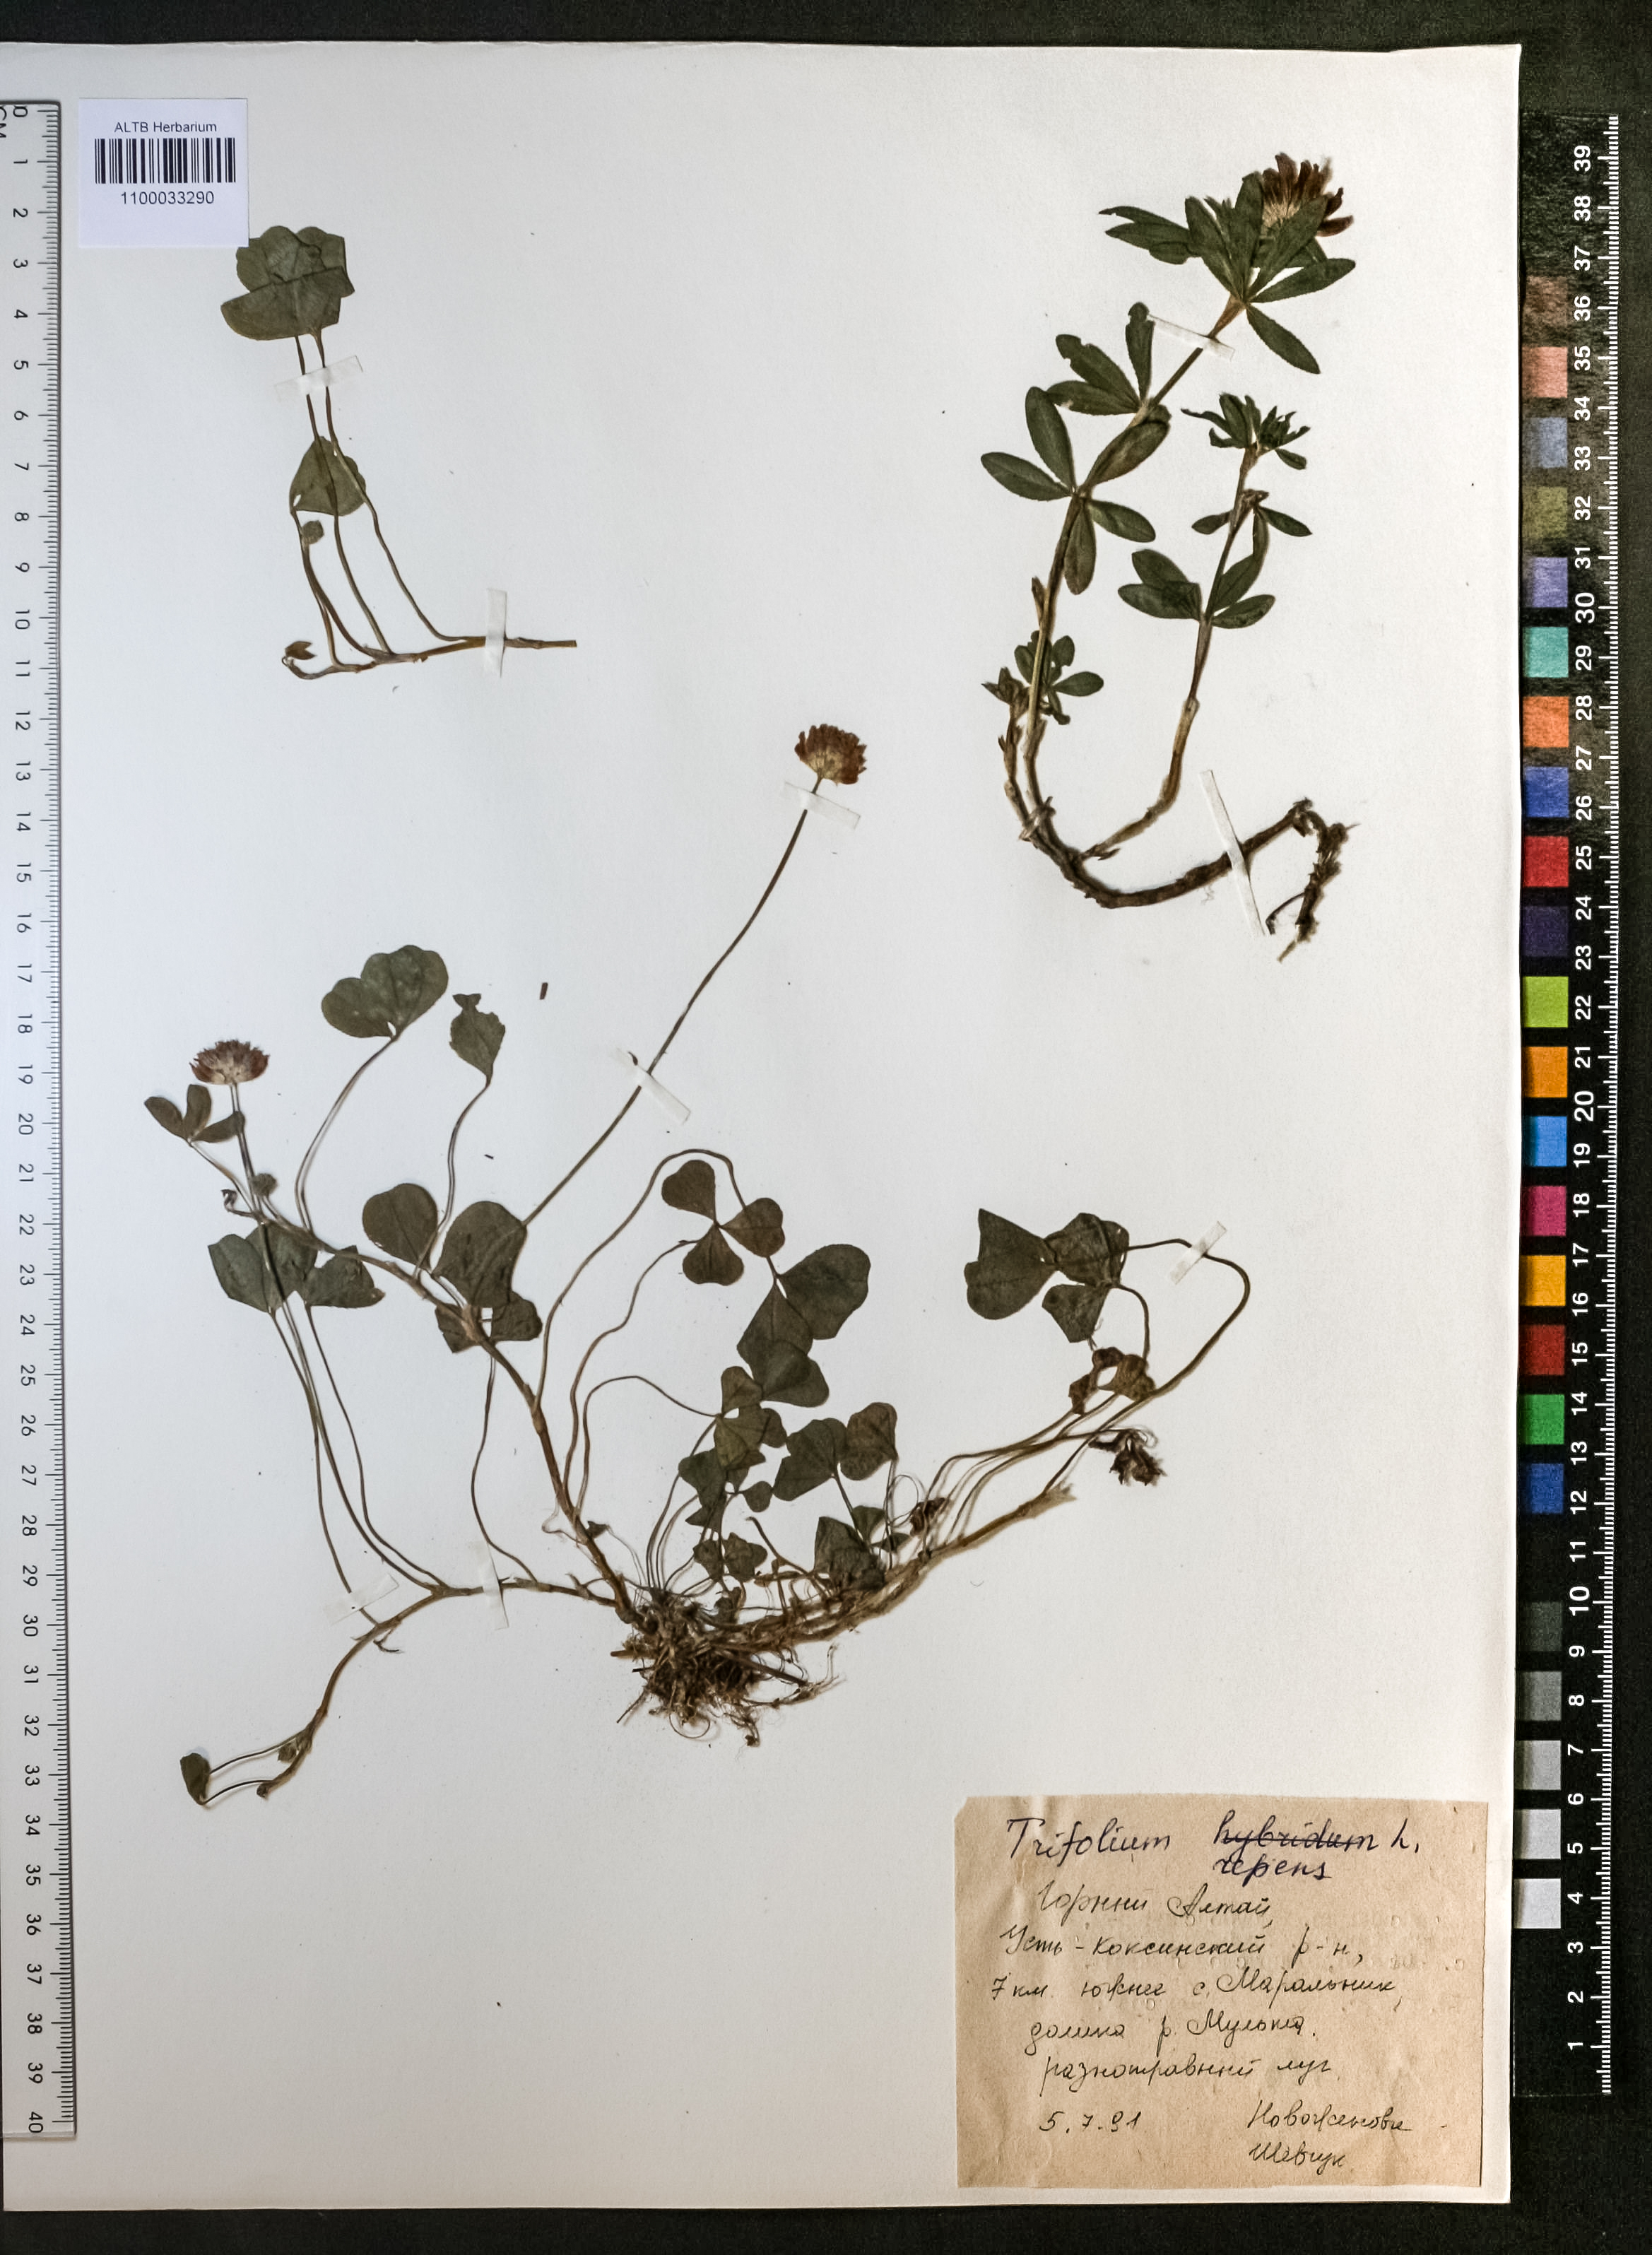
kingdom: Plantae
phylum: Tracheophyta
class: Magnoliopsida
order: Fabales
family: Fabaceae
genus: Trifolium
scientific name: Trifolium repens
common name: White clover
